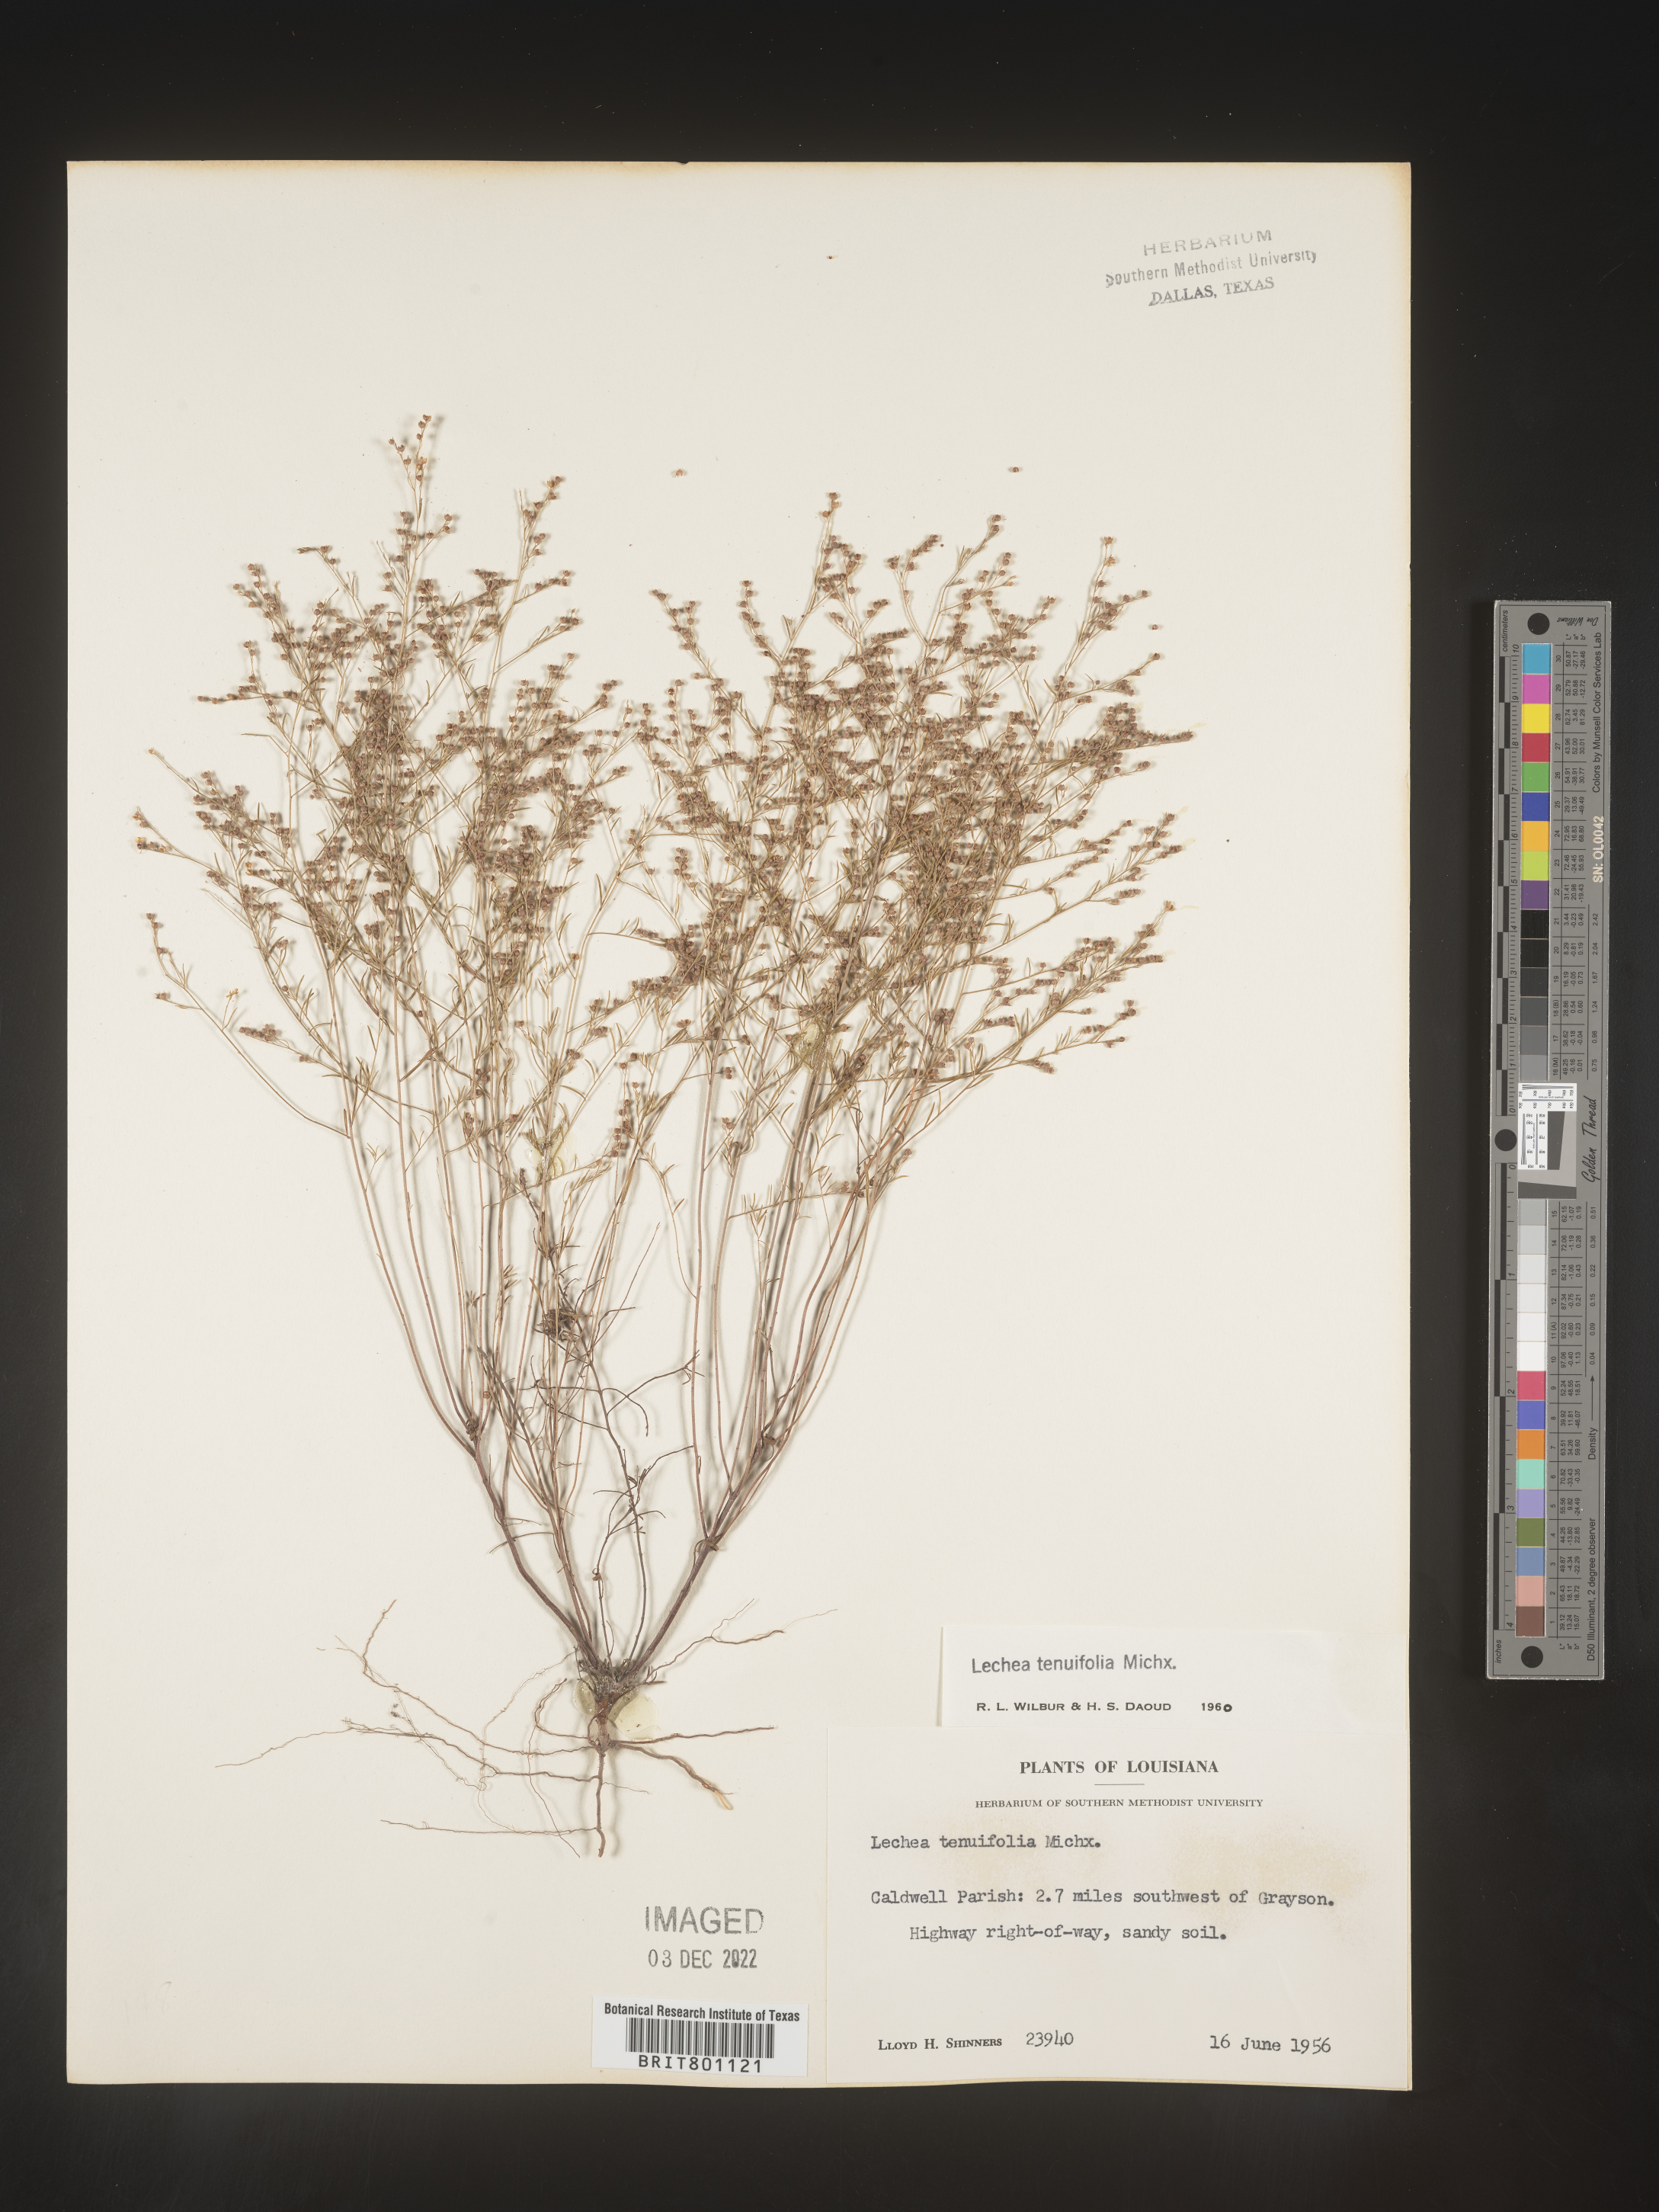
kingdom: Plantae
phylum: Tracheophyta
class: Magnoliopsida
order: Malvales
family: Cistaceae
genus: Lechea
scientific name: Lechea tenuifolia
